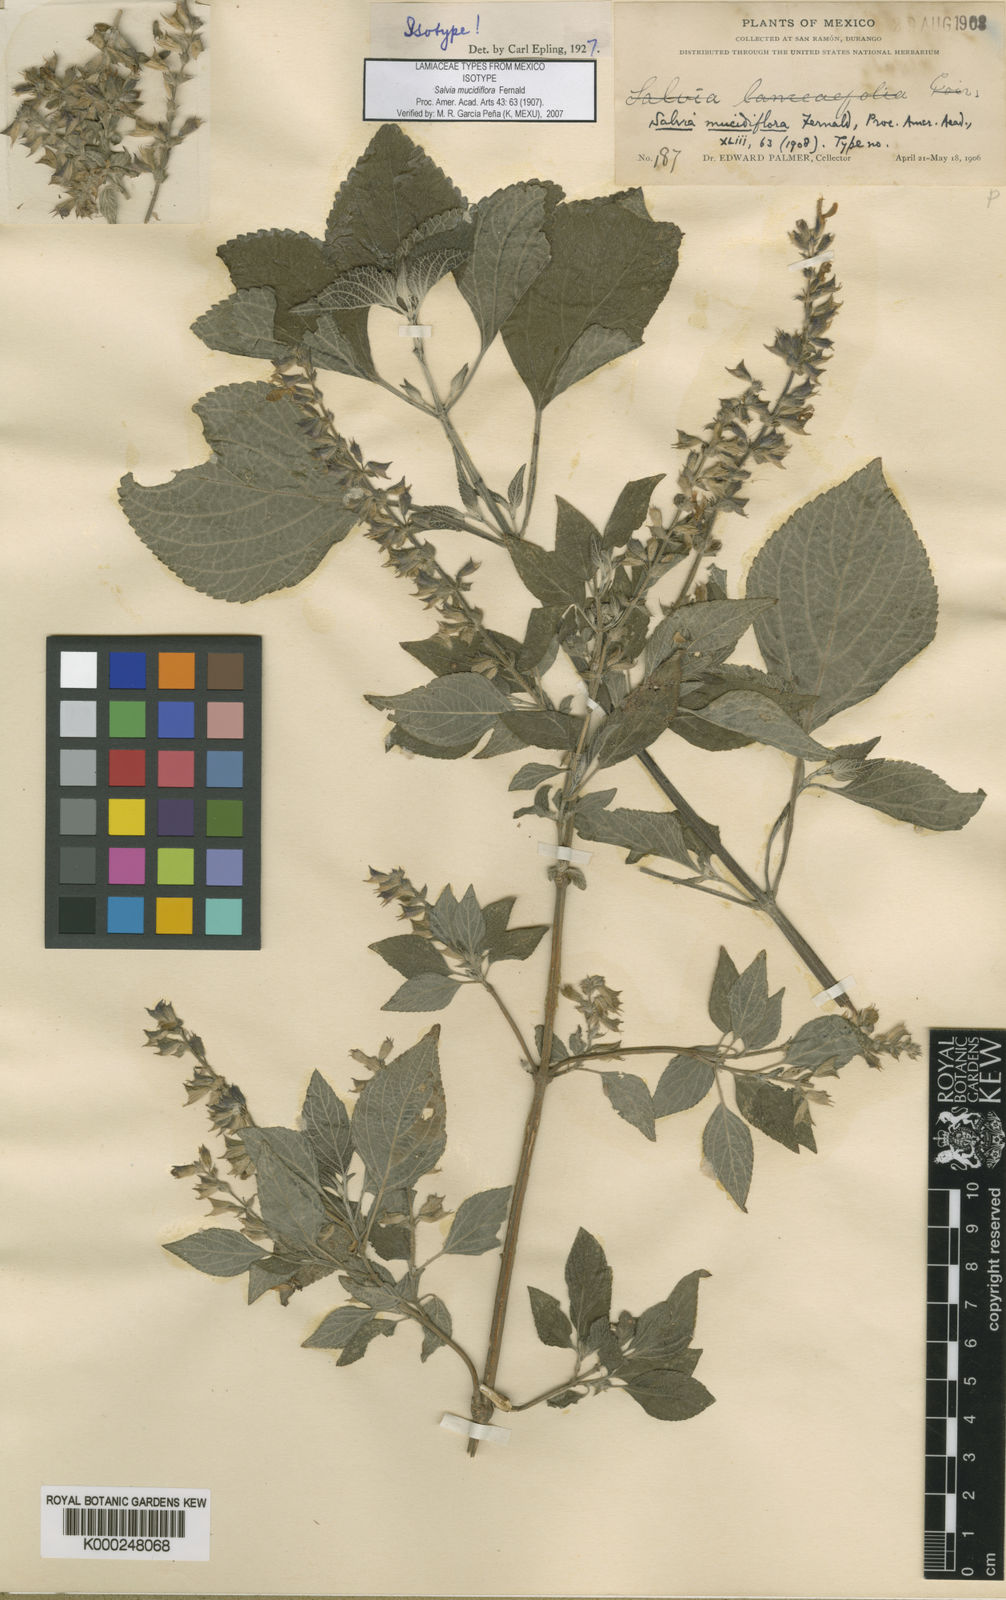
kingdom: Plantae
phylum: Tracheophyta
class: Magnoliopsida
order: Lamiales
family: Lamiaceae
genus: Salvia
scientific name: Salvia roscida
